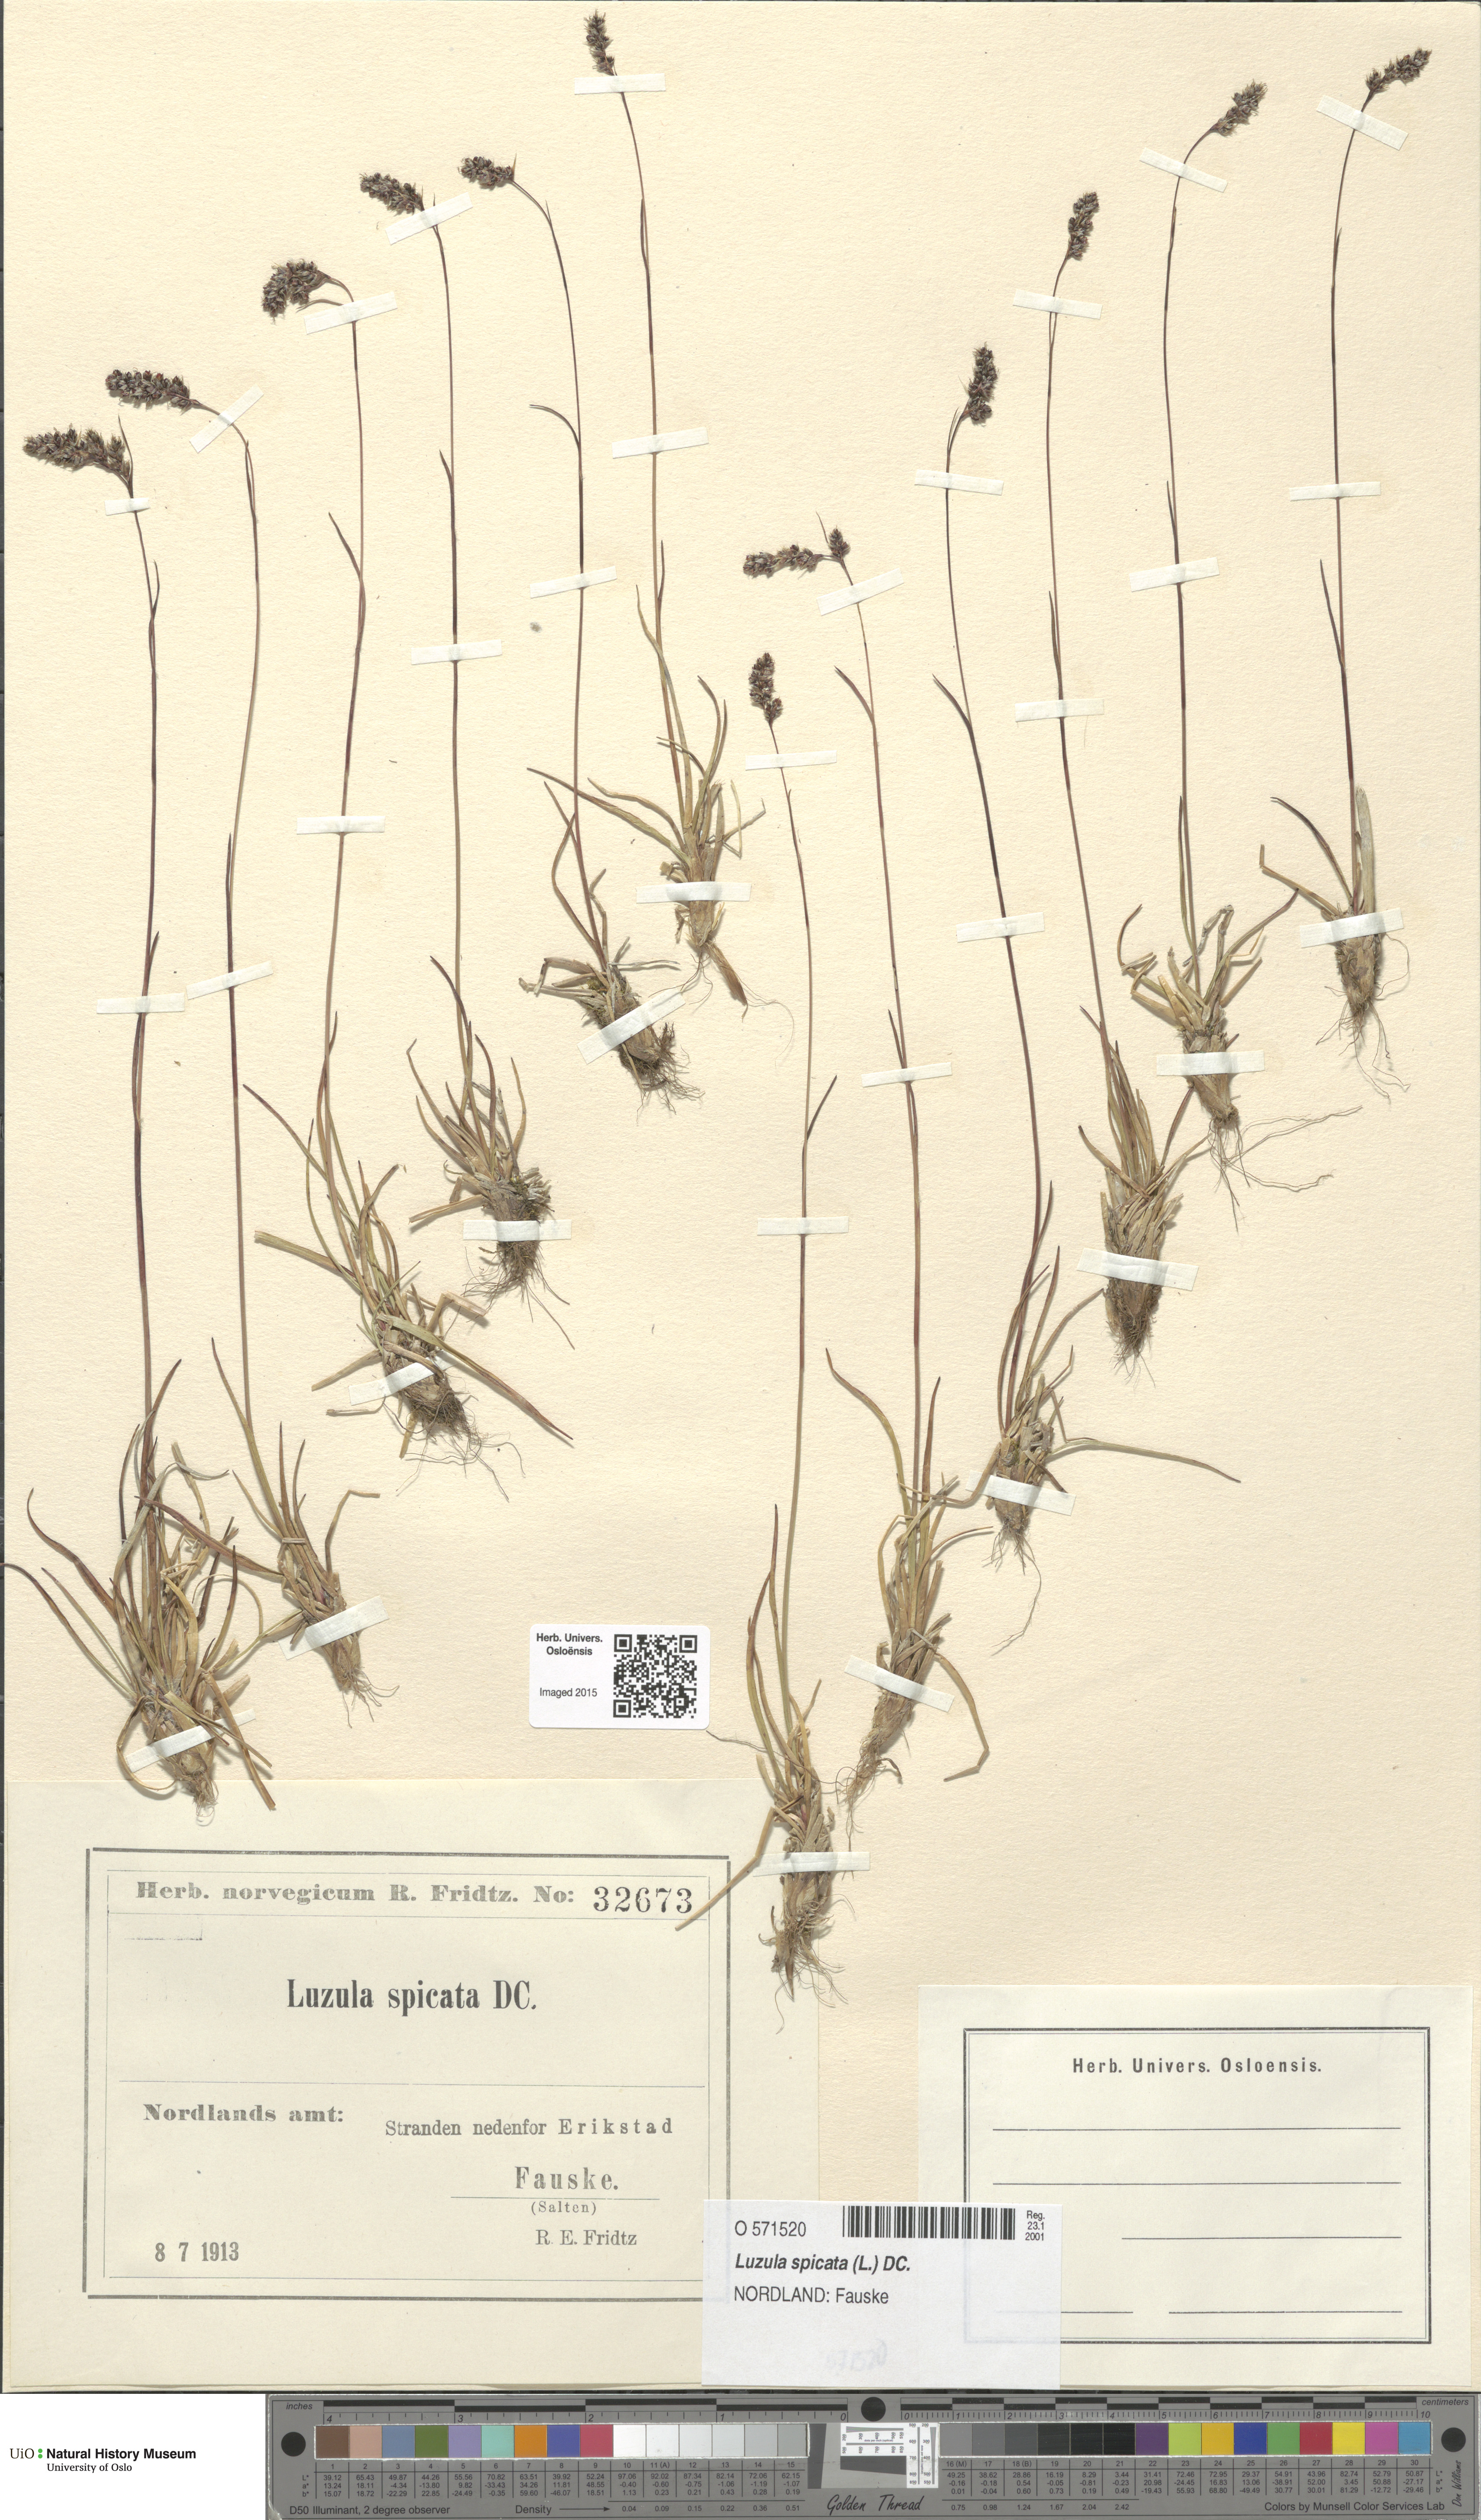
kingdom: Plantae
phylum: Tracheophyta
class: Liliopsida
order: Poales
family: Juncaceae
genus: Luzula
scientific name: Luzula spicata
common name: Spiked wood-rush
